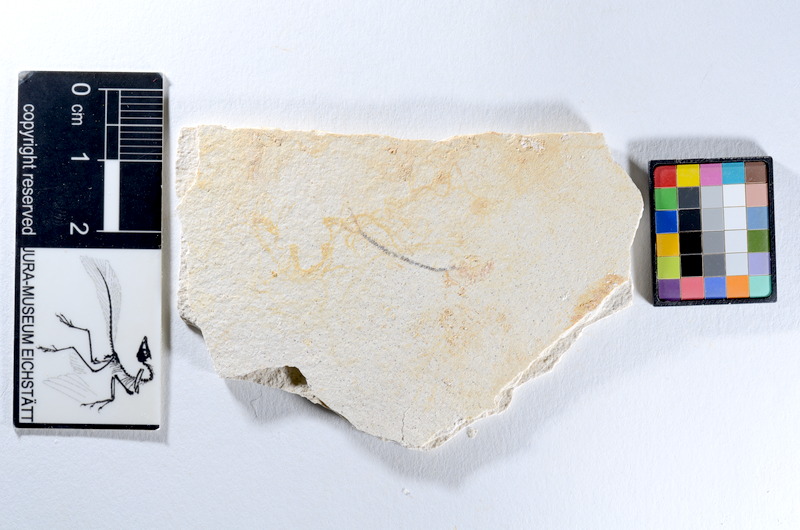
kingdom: Animalia
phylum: Chordata
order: Salmoniformes
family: Orthogonikleithridae
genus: Orthogonikleithrus
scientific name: Orthogonikleithrus hoelli
